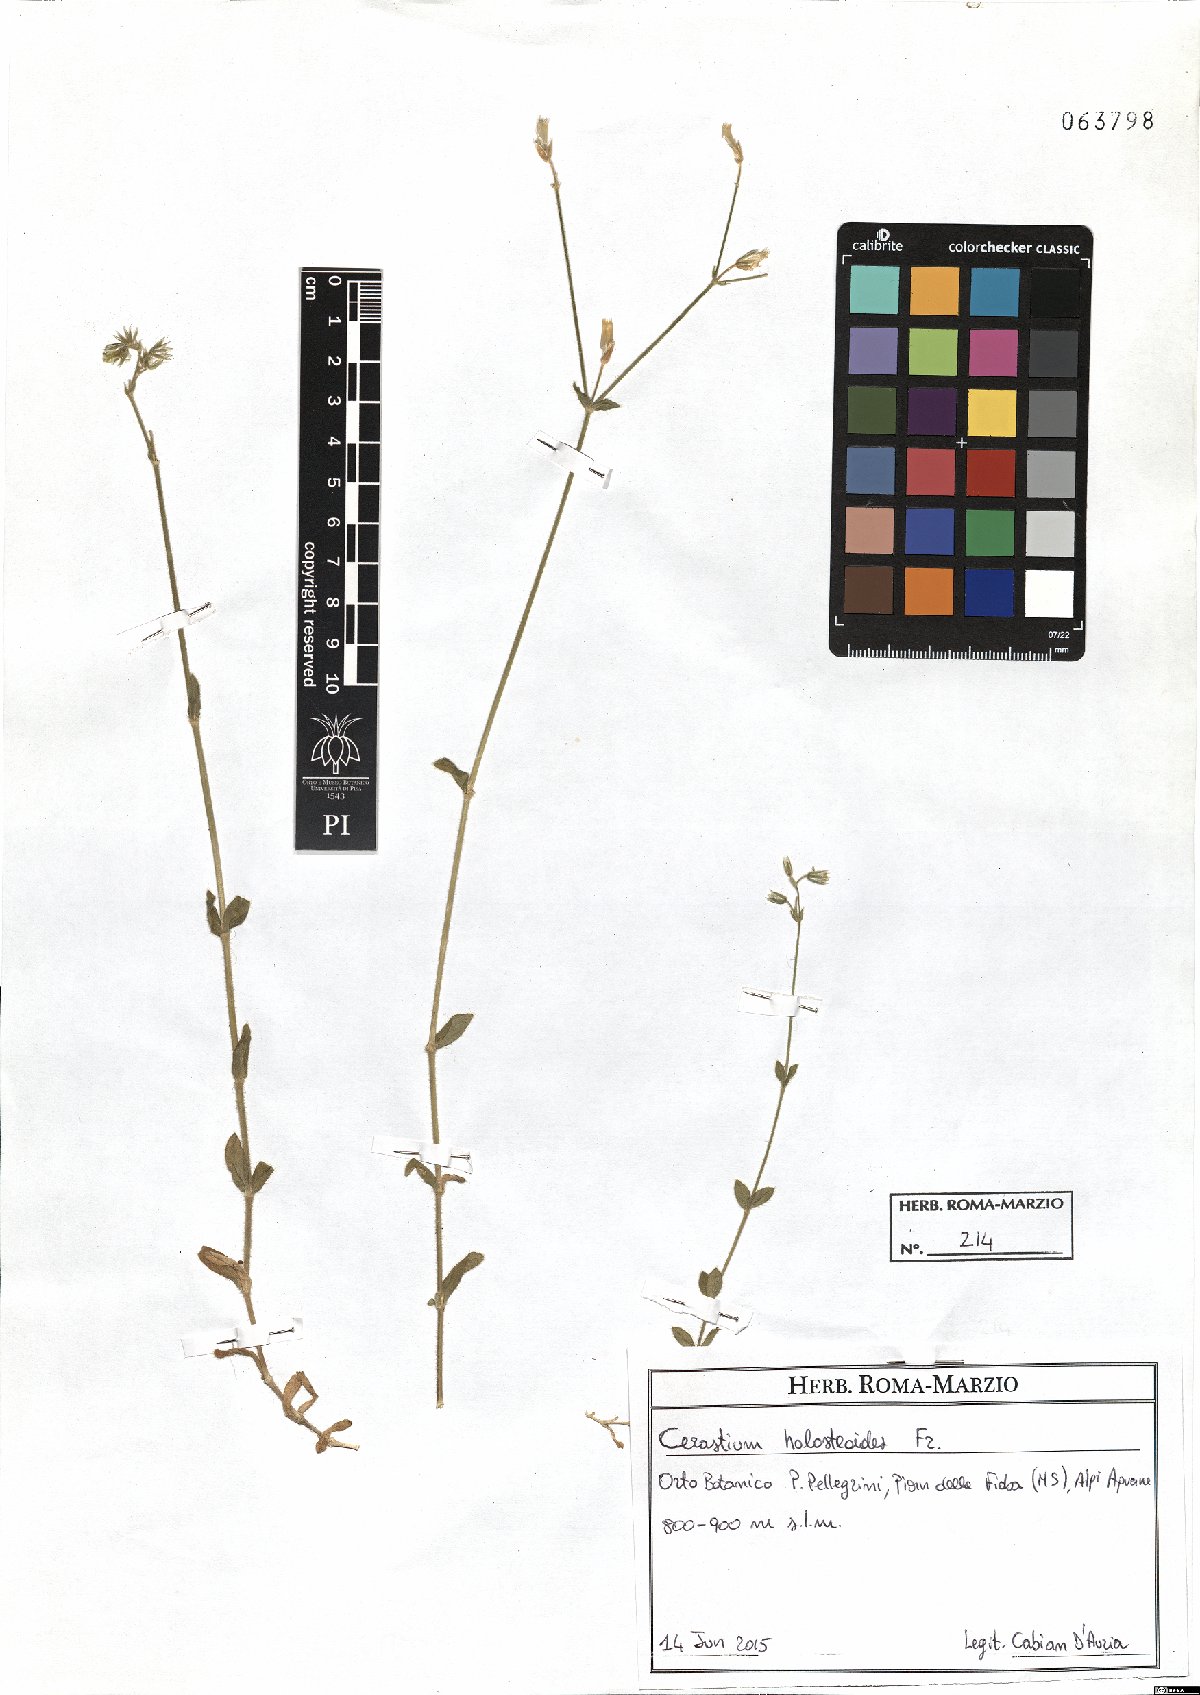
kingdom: Plantae
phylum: Tracheophyta
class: Magnoliopsida
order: Caryophyllales
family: Caryophyllaceae
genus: Cerastium
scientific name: Cerastium holosteoides
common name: Big chickweed
